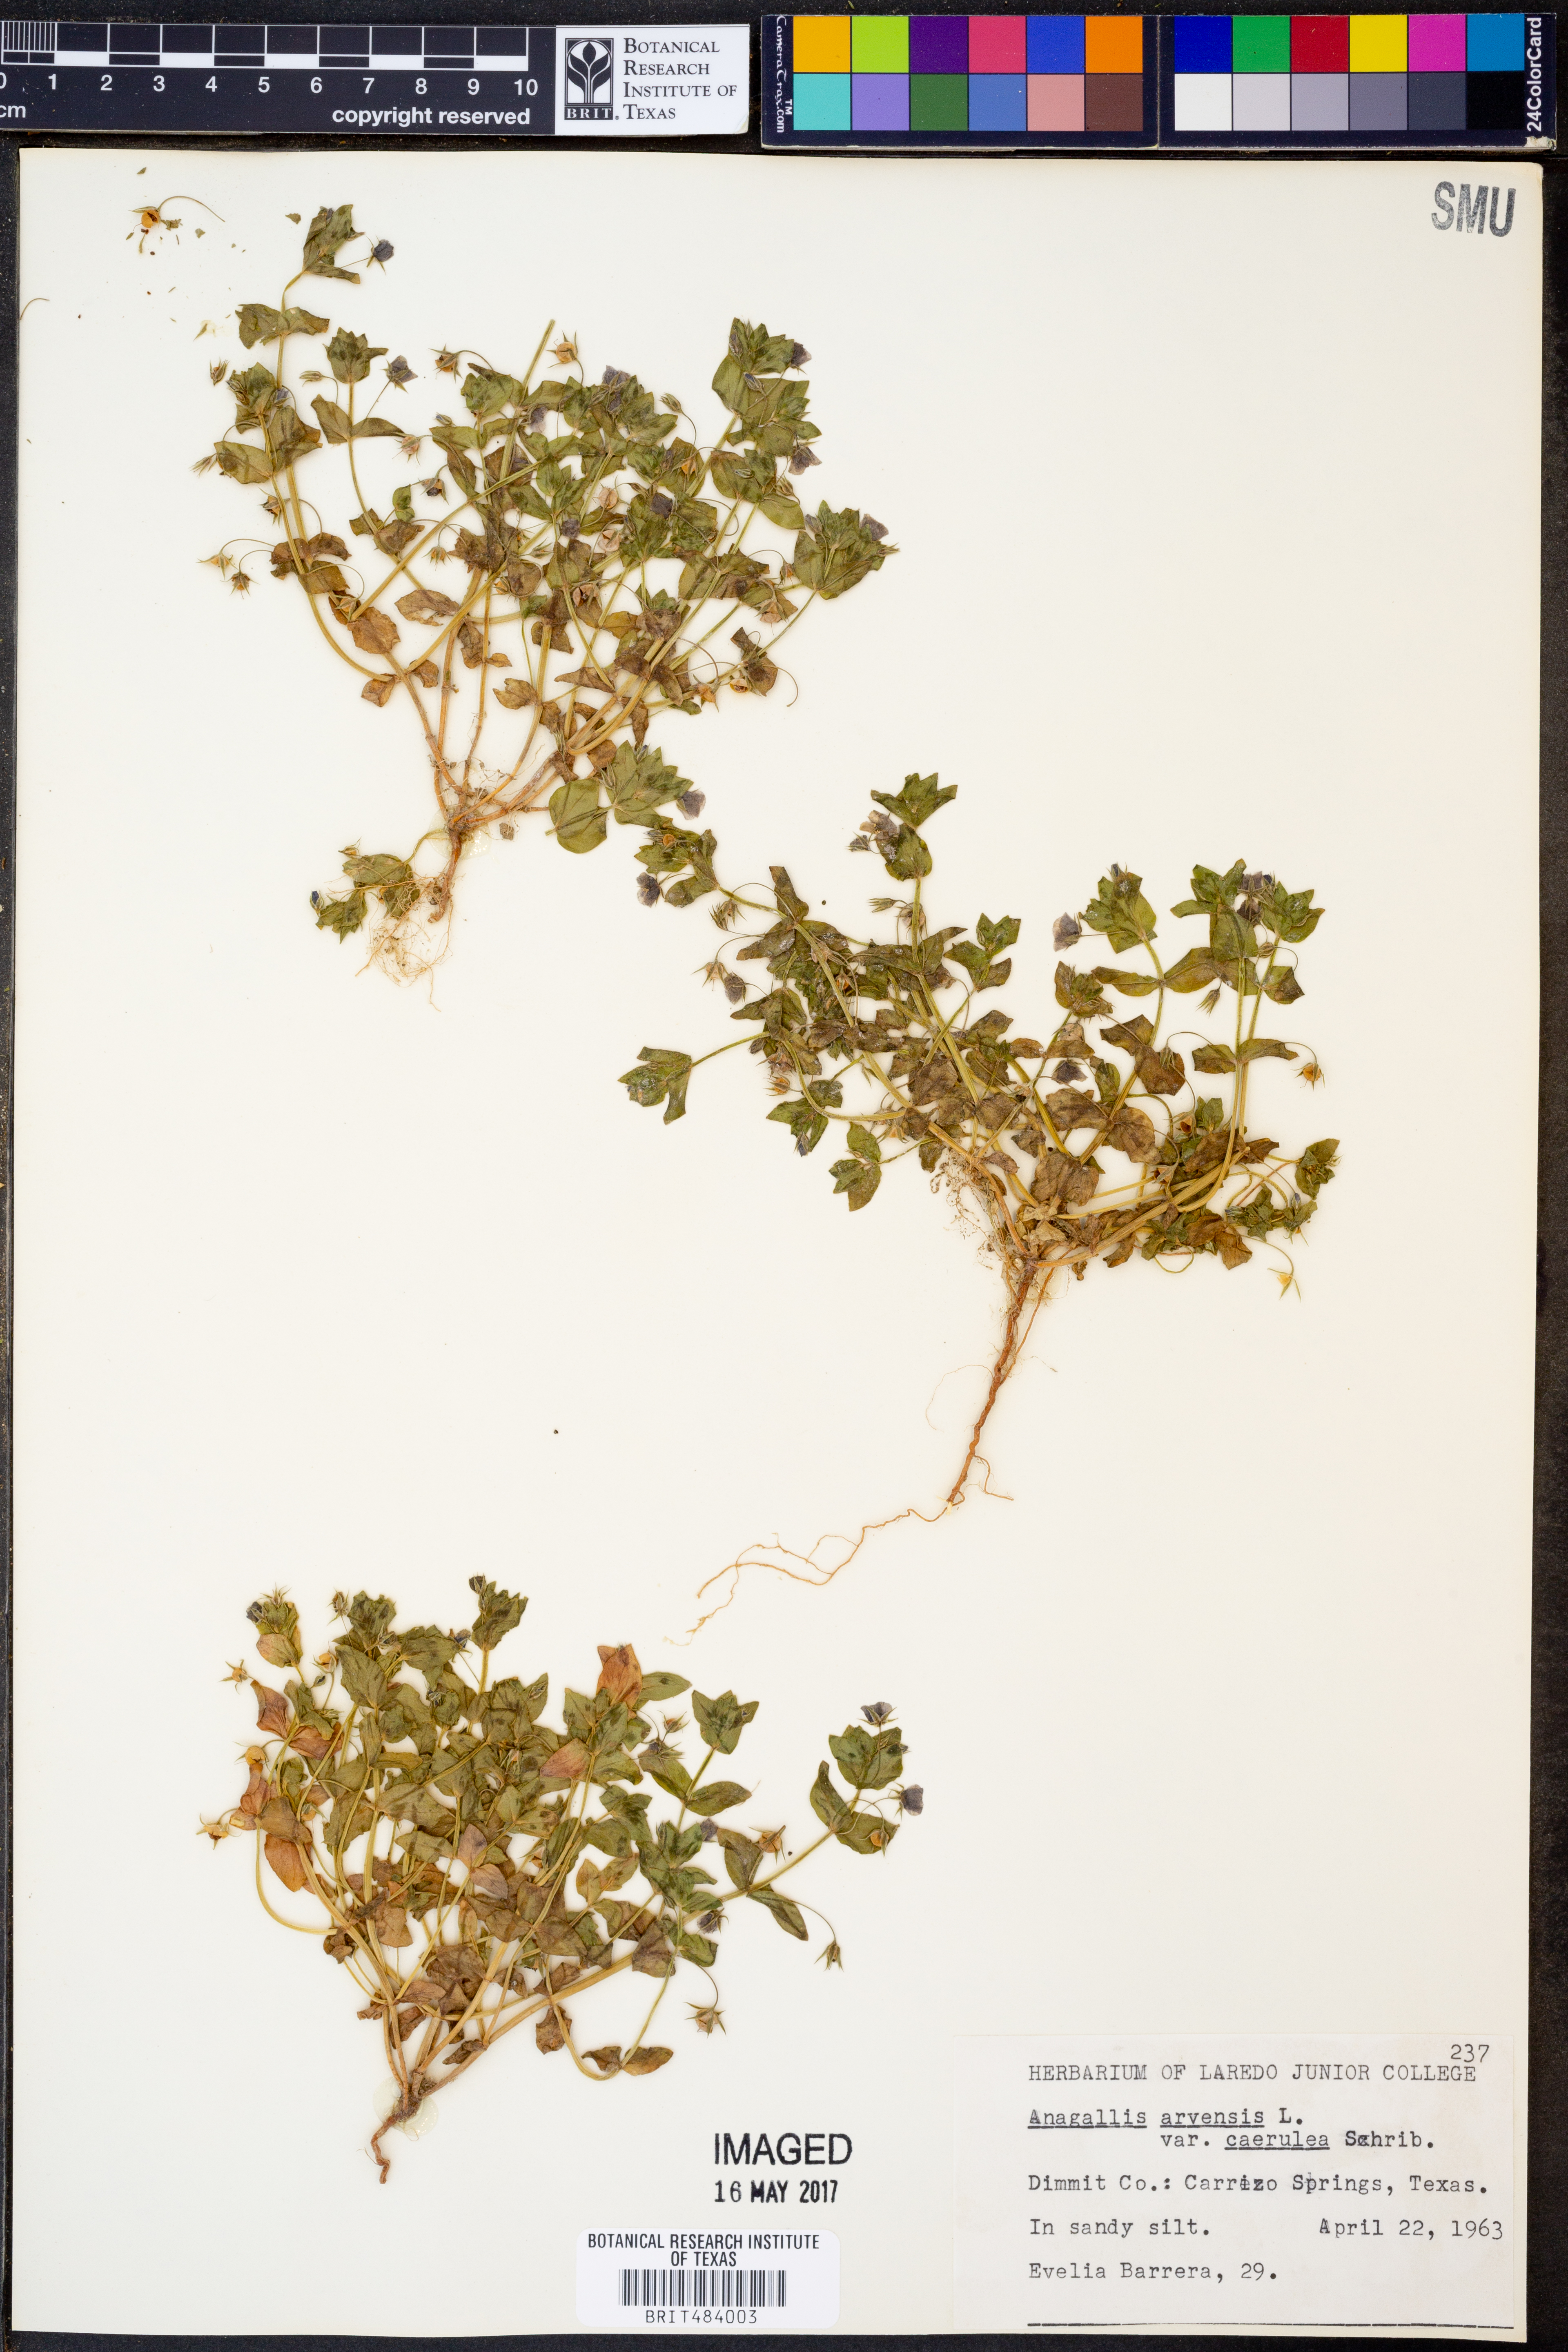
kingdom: Plantae
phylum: Tracheophyta
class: Magnoliopsida
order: Ericales
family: Primulaceae
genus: Lysimachia
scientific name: Lysimachia foemina
